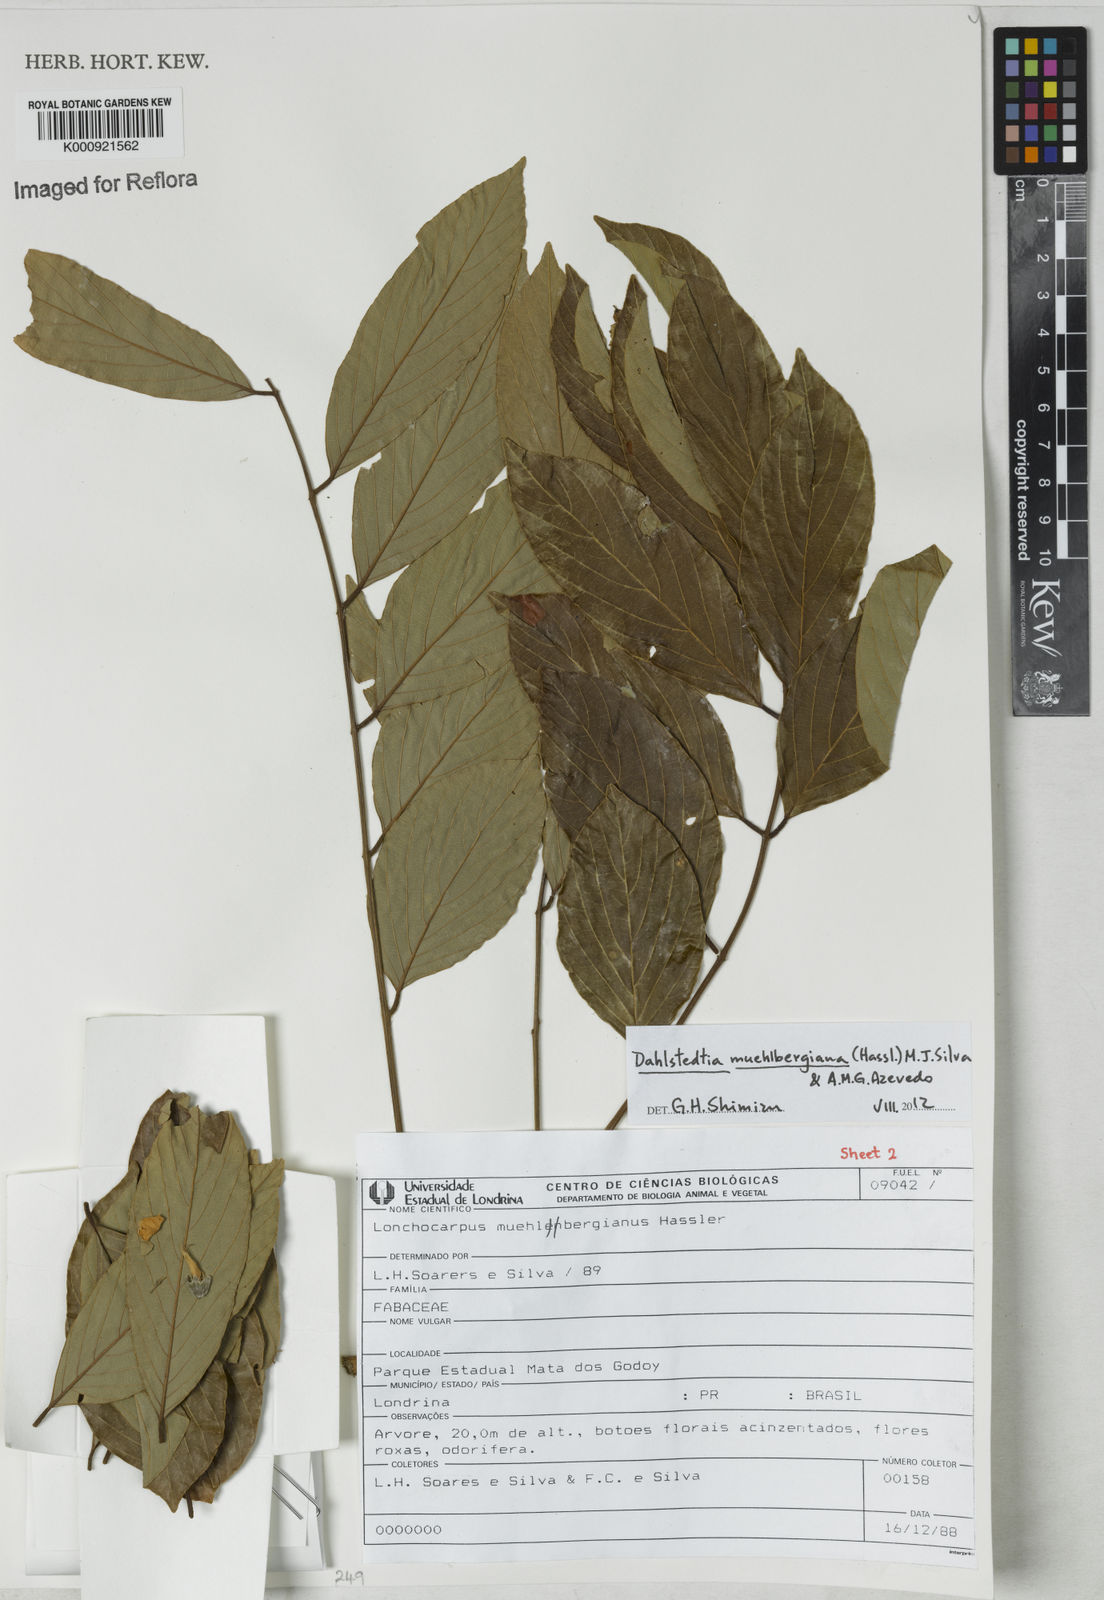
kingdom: Plantae
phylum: Tracheophyta
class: Magnoliopsida
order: Fabales
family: Fabaceae
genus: Dahlstedtia
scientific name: Dahlstedtia muehlbergiana
